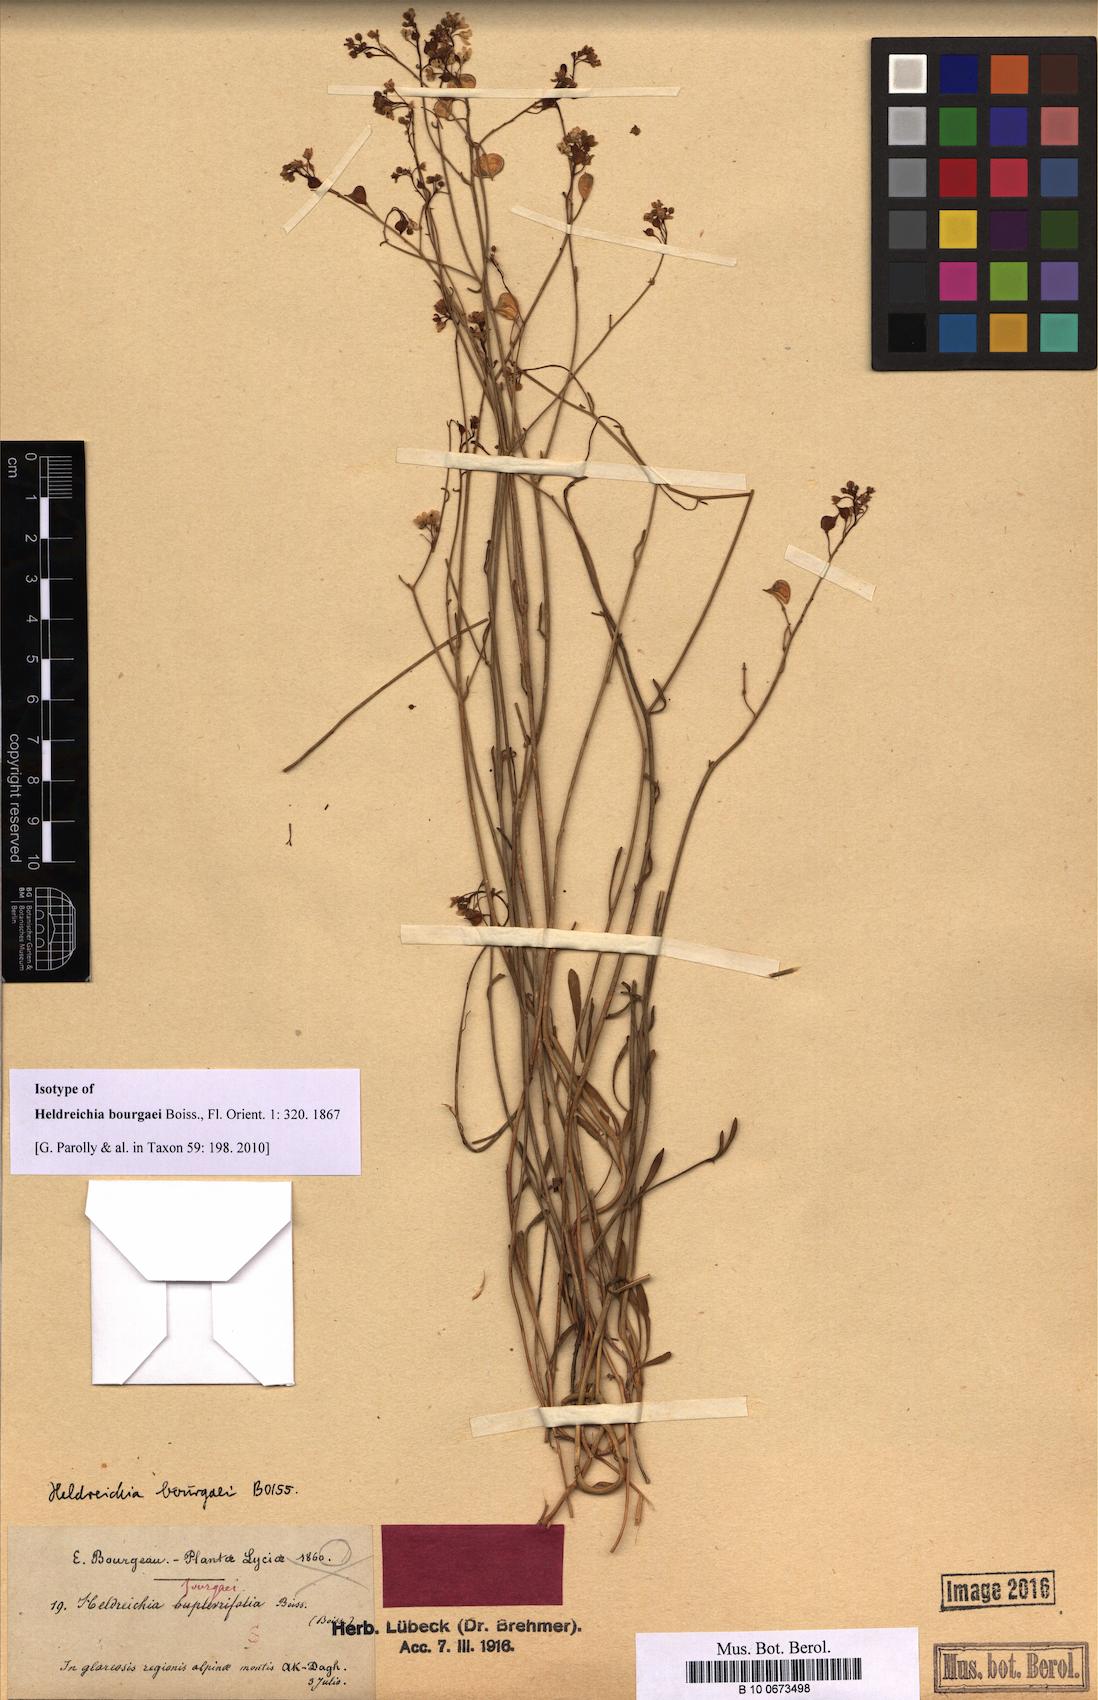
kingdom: Plantae
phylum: Tracheophyta
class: Magnoliopsida
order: Brassicales
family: Brassicaceae
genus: Heldreichia
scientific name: Heldreichia bupleurifolia
